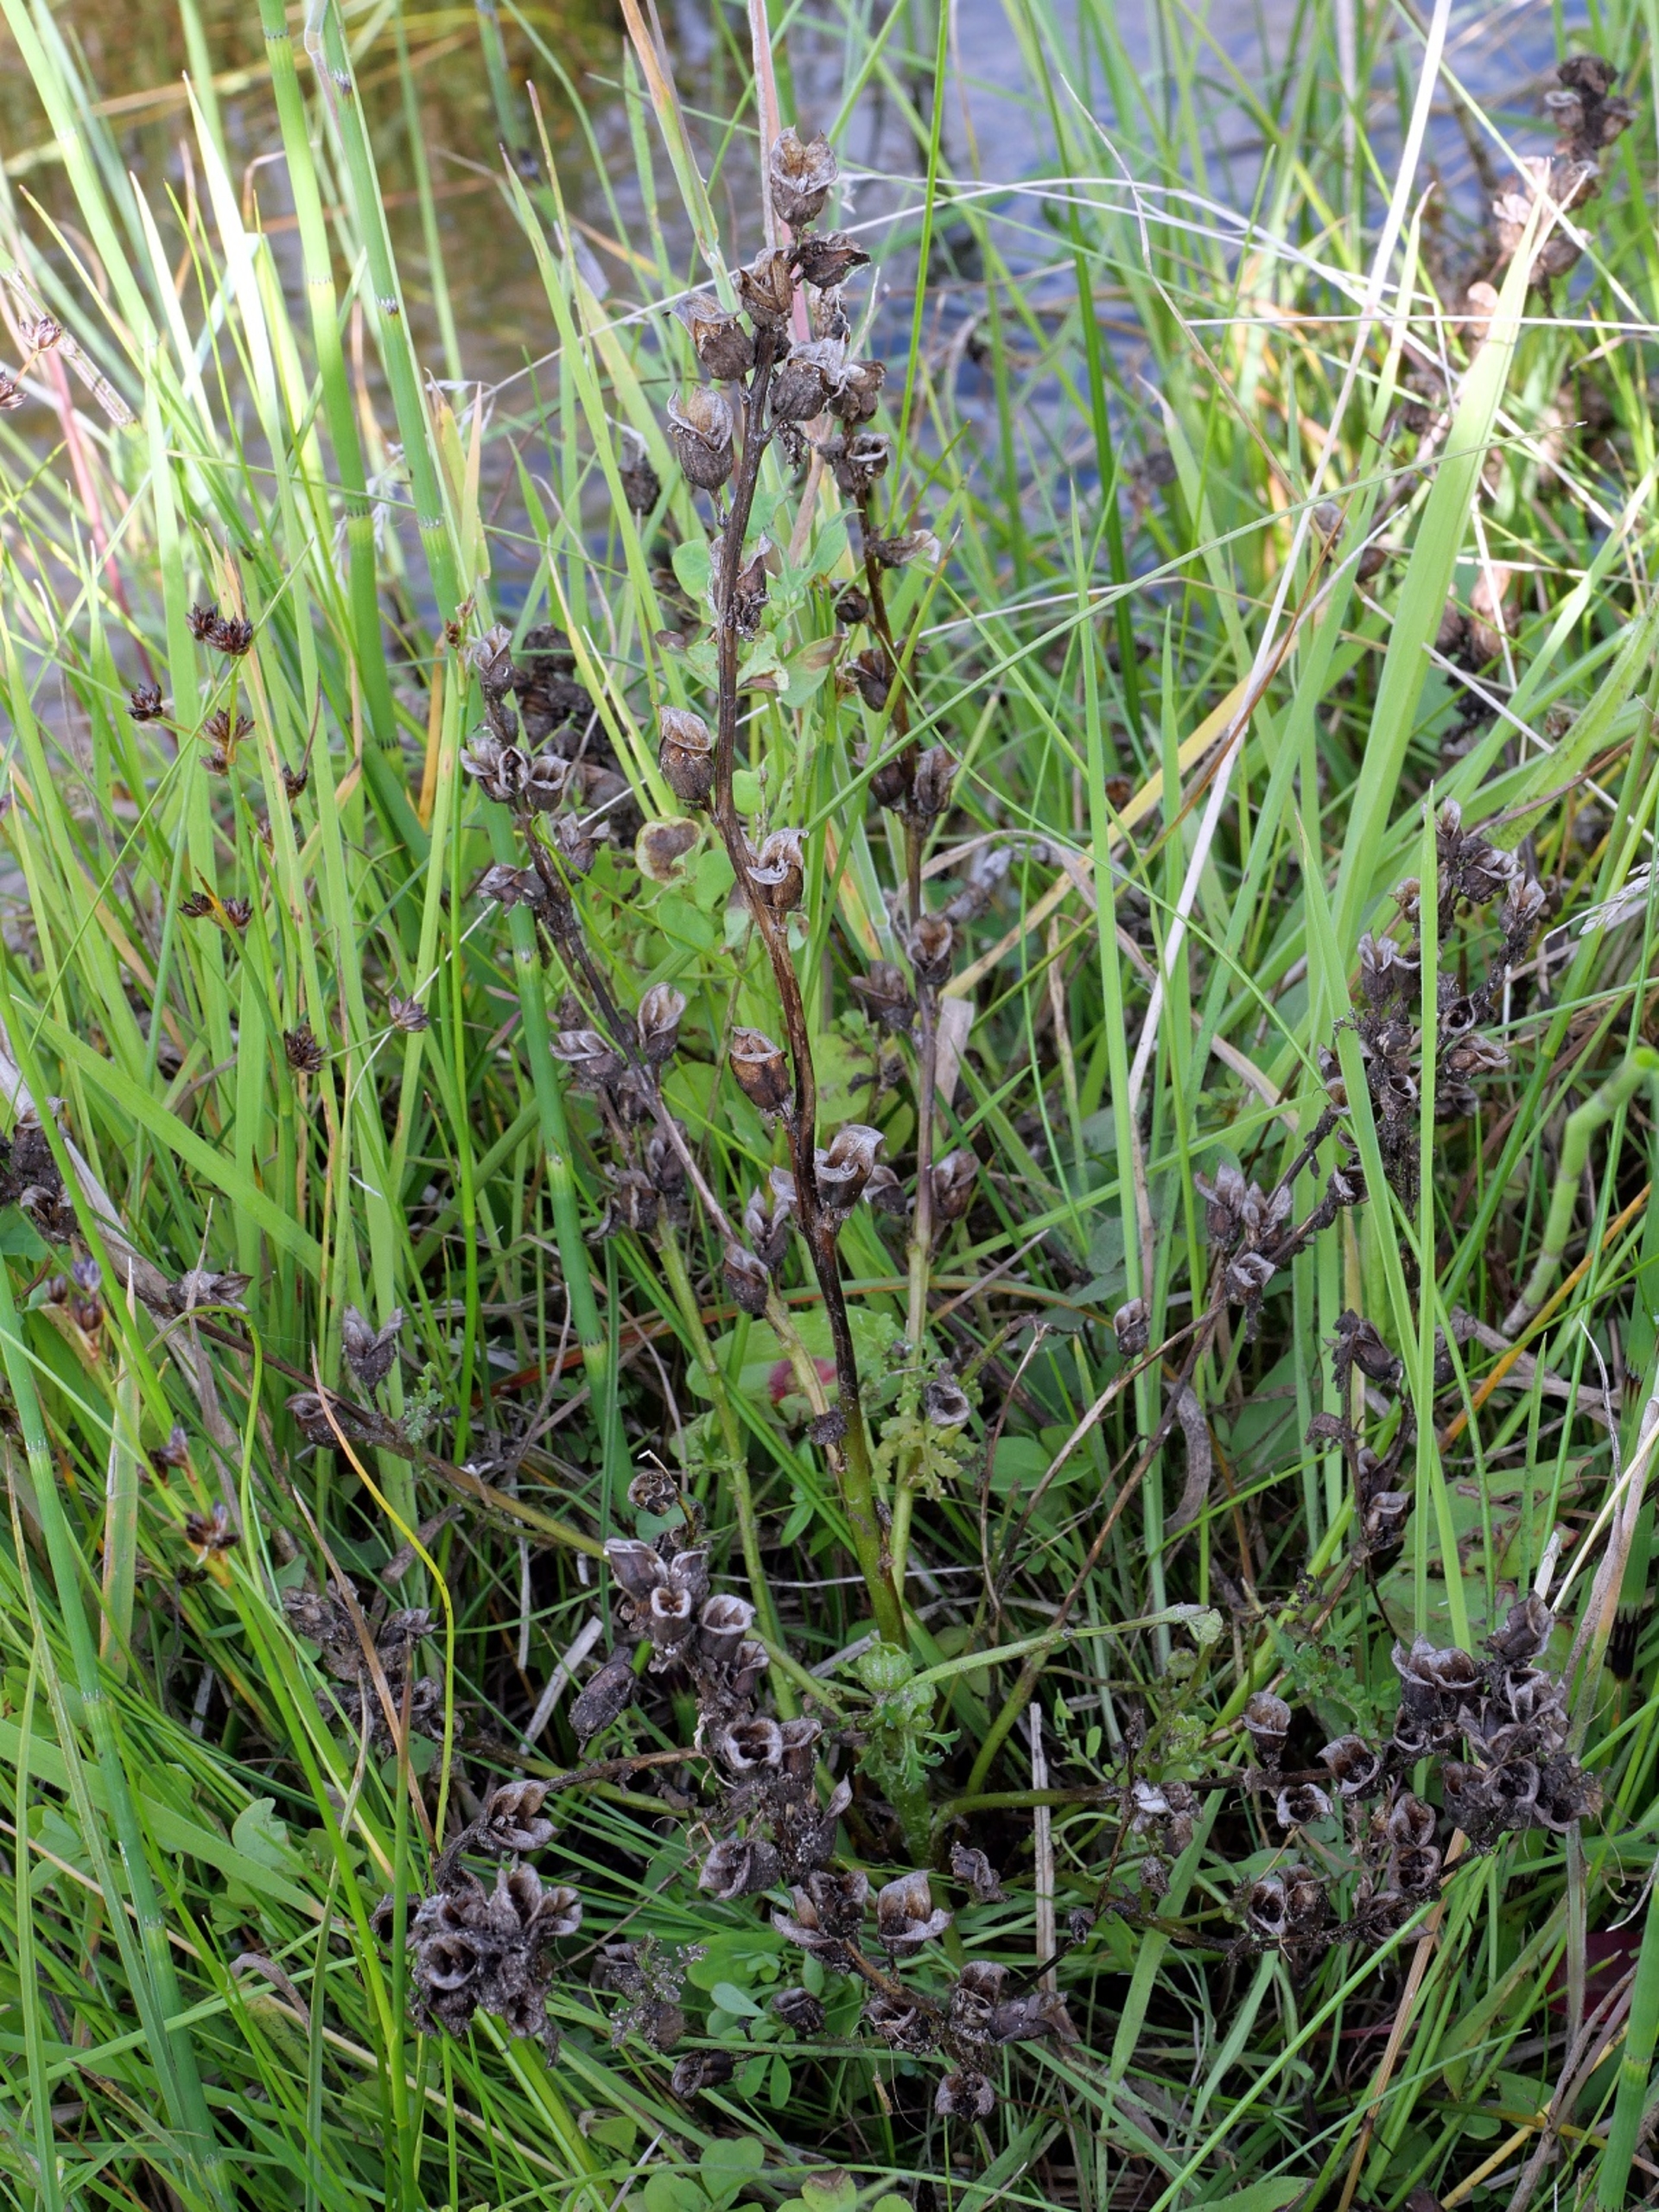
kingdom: Plantae
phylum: Tracheophyta
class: Magnoliopsida
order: Lamiales
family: Orobanchaceae
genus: Pedicularis
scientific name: Pedicularis palustris
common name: Eng-troldurt
